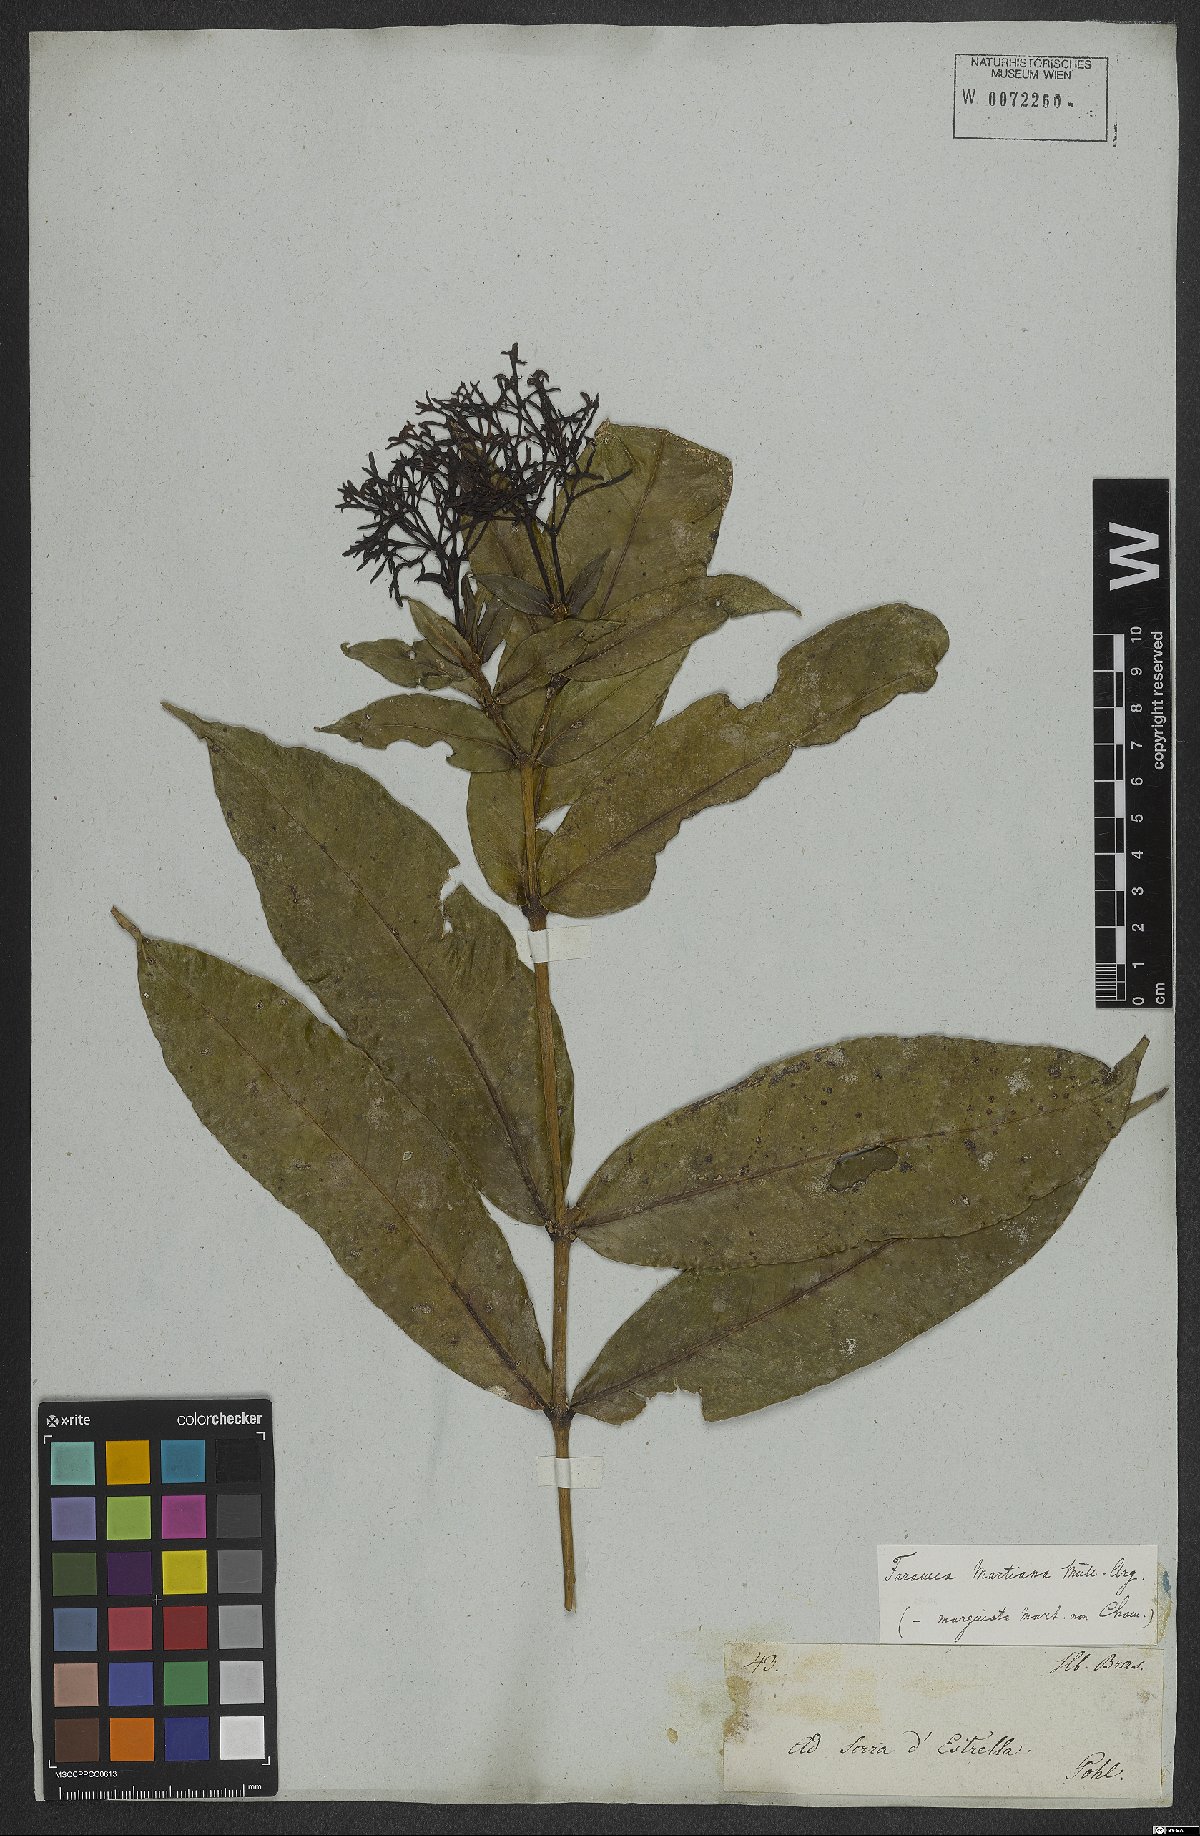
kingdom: Plantae
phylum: Tracheophyta
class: Magnoliopsida
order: Gentianales
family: Rubiaceae
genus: Faramea
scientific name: Faramea martiana
